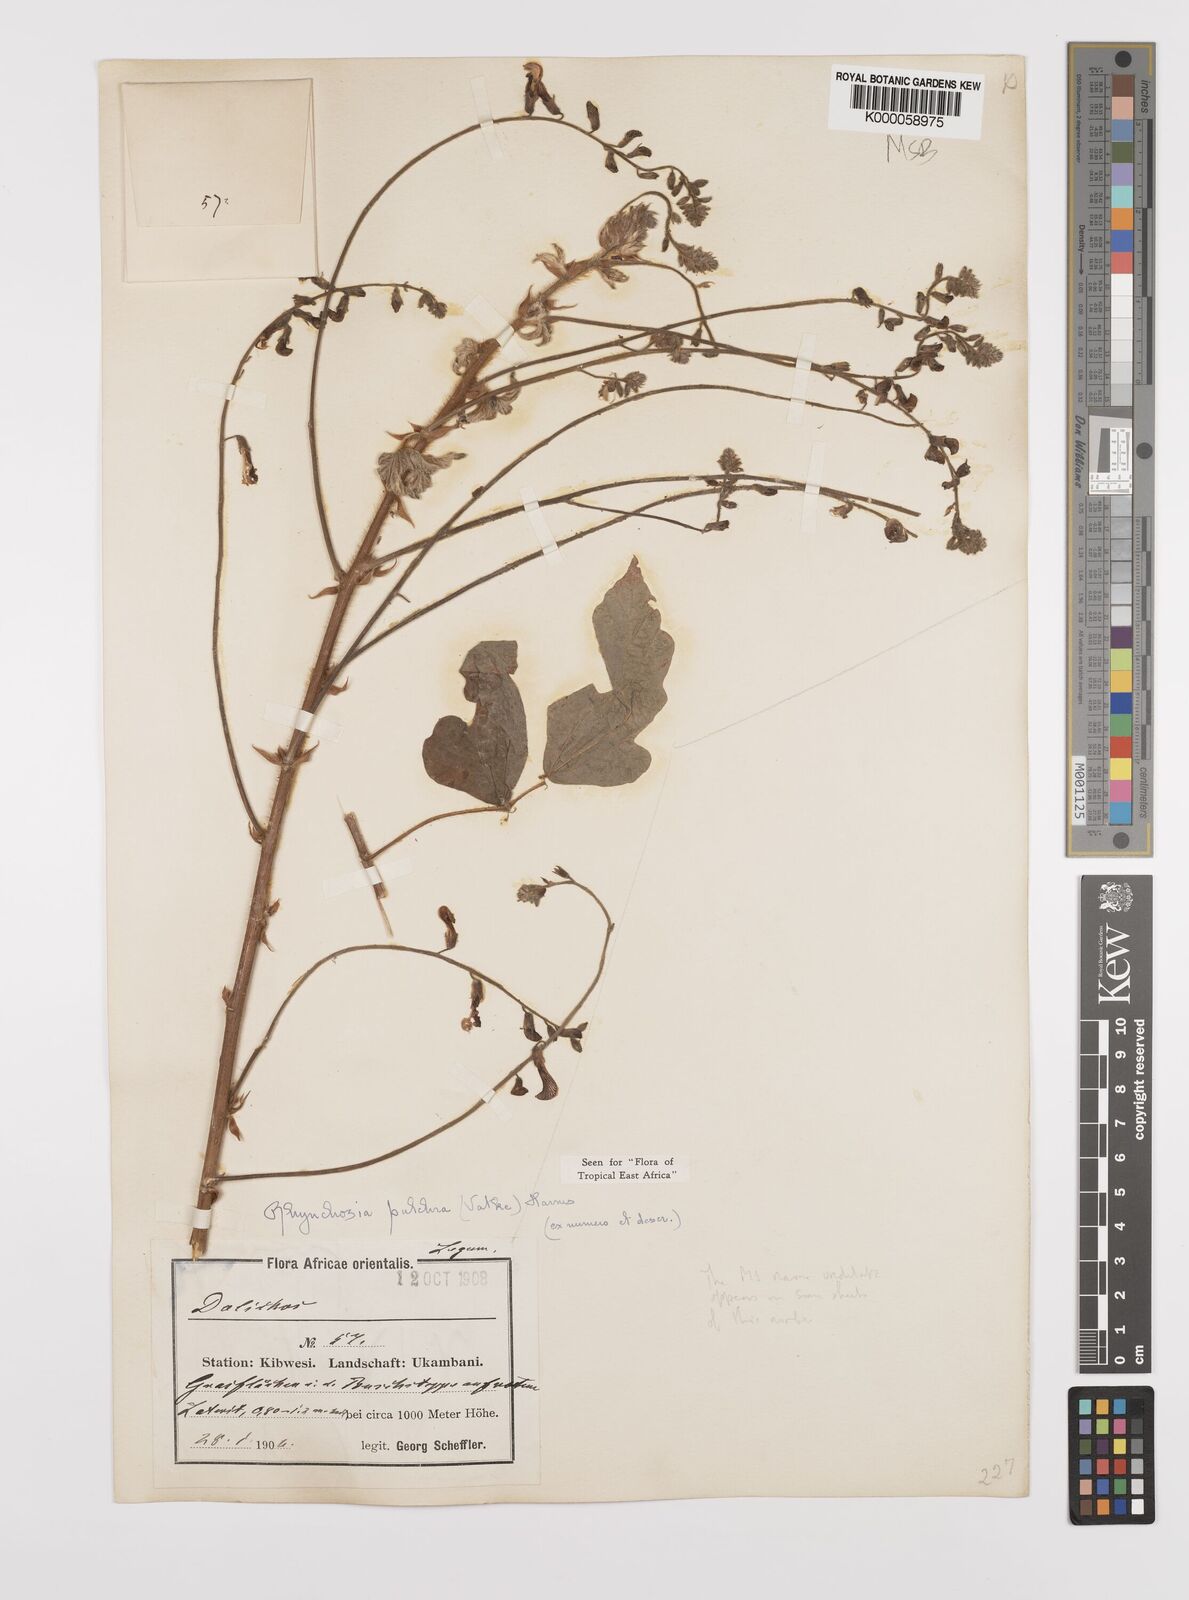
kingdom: Plantae
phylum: Tracheophyta
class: Magnoliopsida
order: Fabales
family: Fabaceae
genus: Rhynchosia
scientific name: Rhynchosia pulchra
